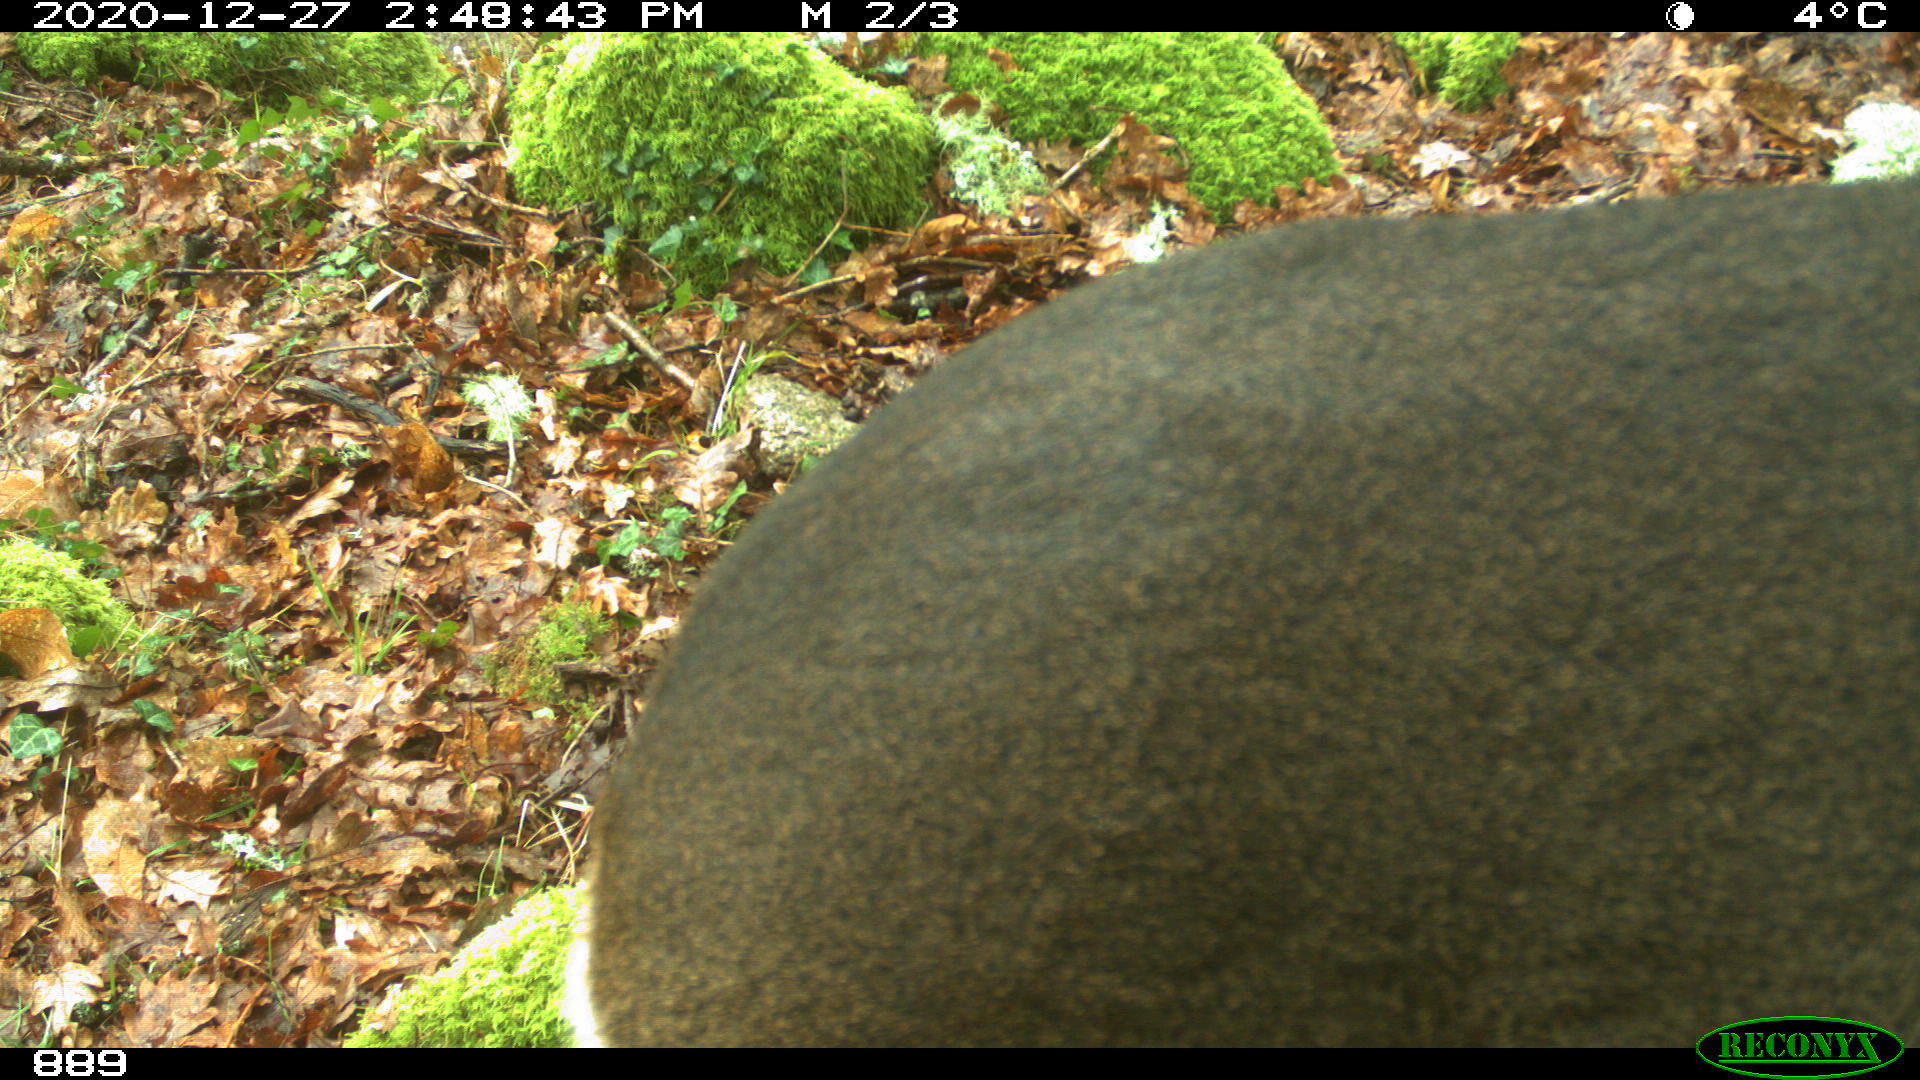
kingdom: Animalia
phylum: Chordata
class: Mammalia
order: Artiodactyla
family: Cervidae
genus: Capreolus
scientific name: Capreolus capreolus
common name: Western roe deer
